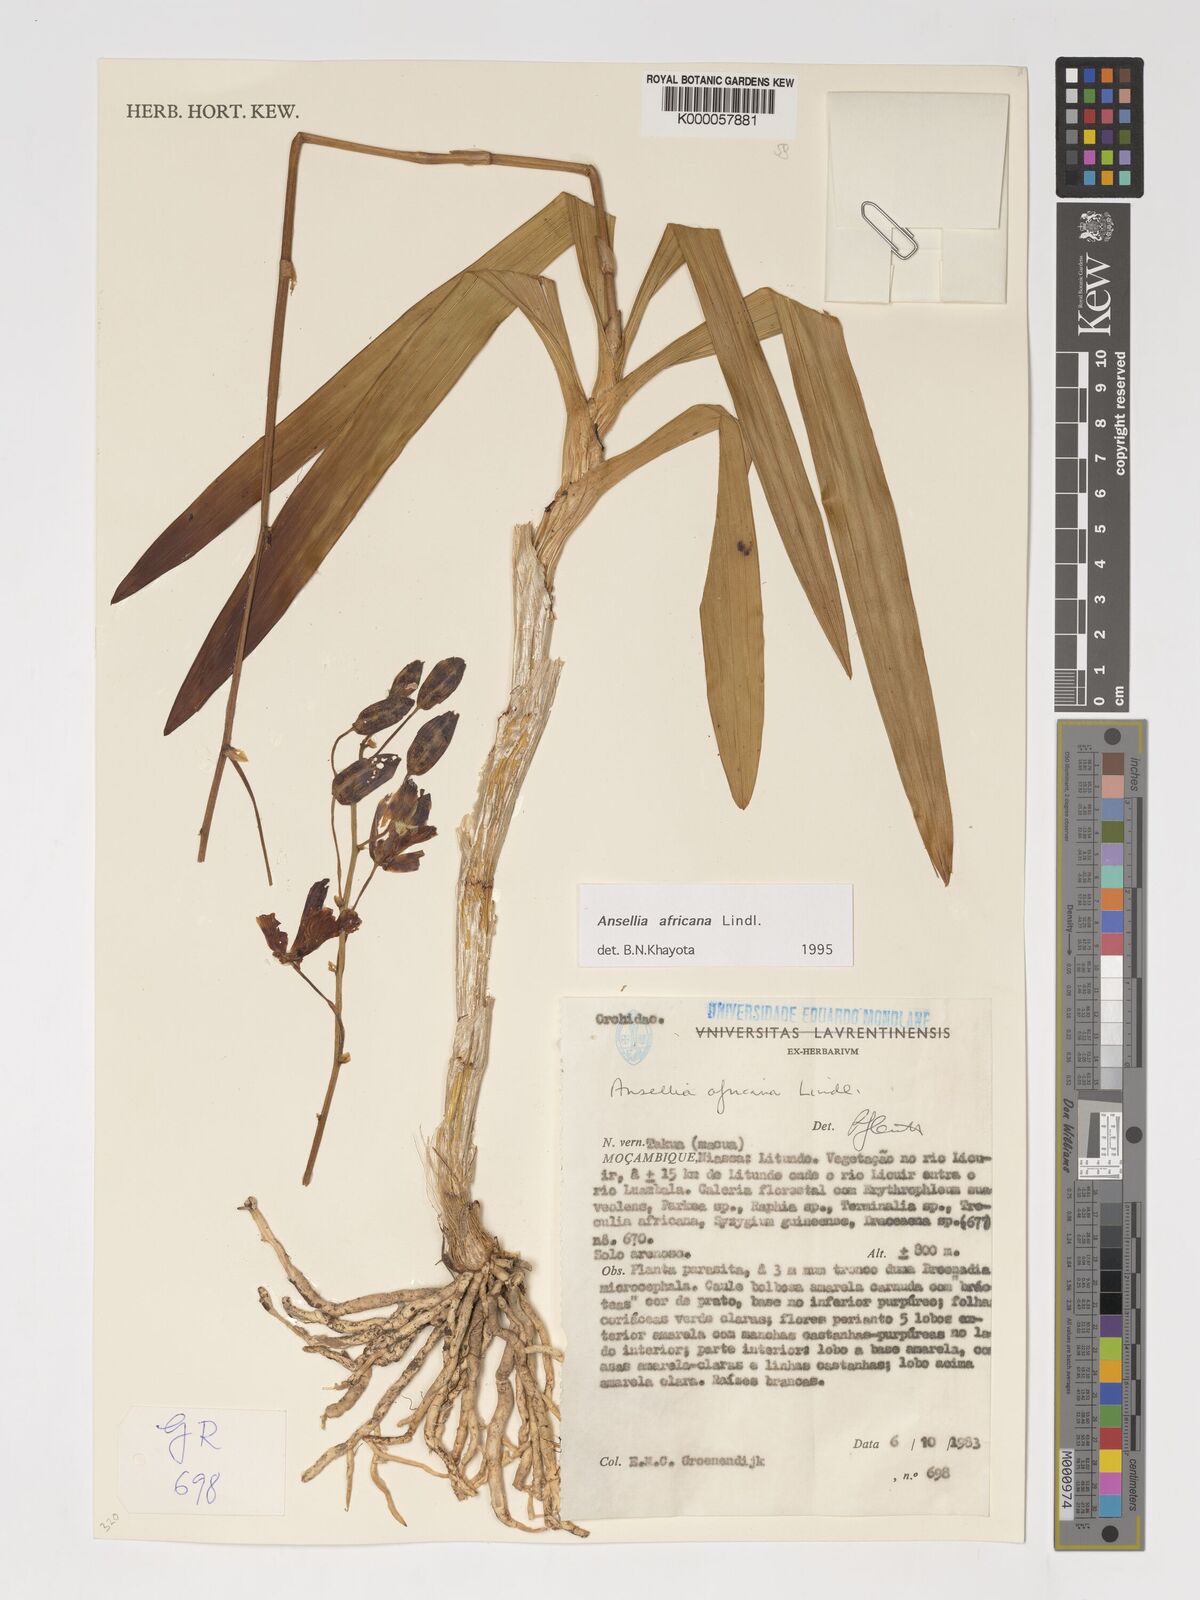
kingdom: Plantae
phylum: Tracheophyta
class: Liliopsida
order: Asparagales
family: Orchidaceae
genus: Ansellia
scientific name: Ansellia africana
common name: African ansellia
